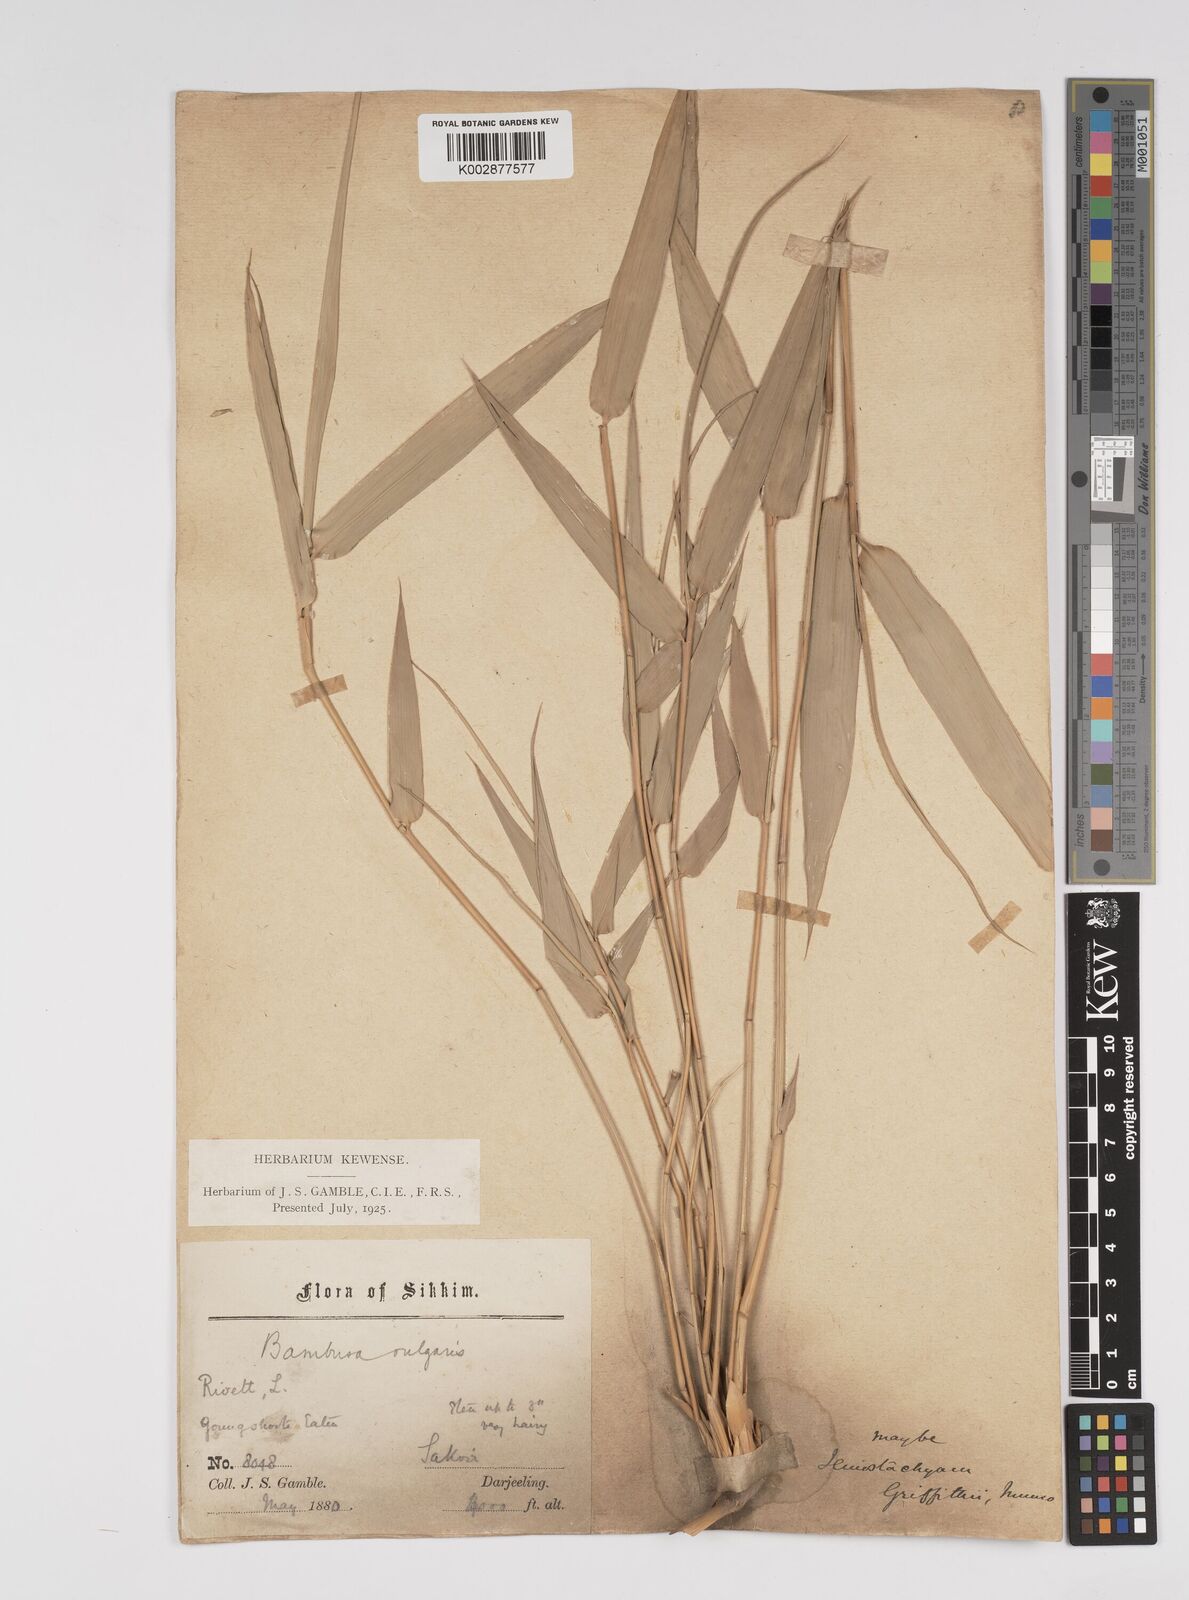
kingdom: Plantae
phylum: Tracheophyta
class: Liliopsida
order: Poales
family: Poaceae
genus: Bambusa
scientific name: Bambusa bambos
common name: Indian thorny bamboo
